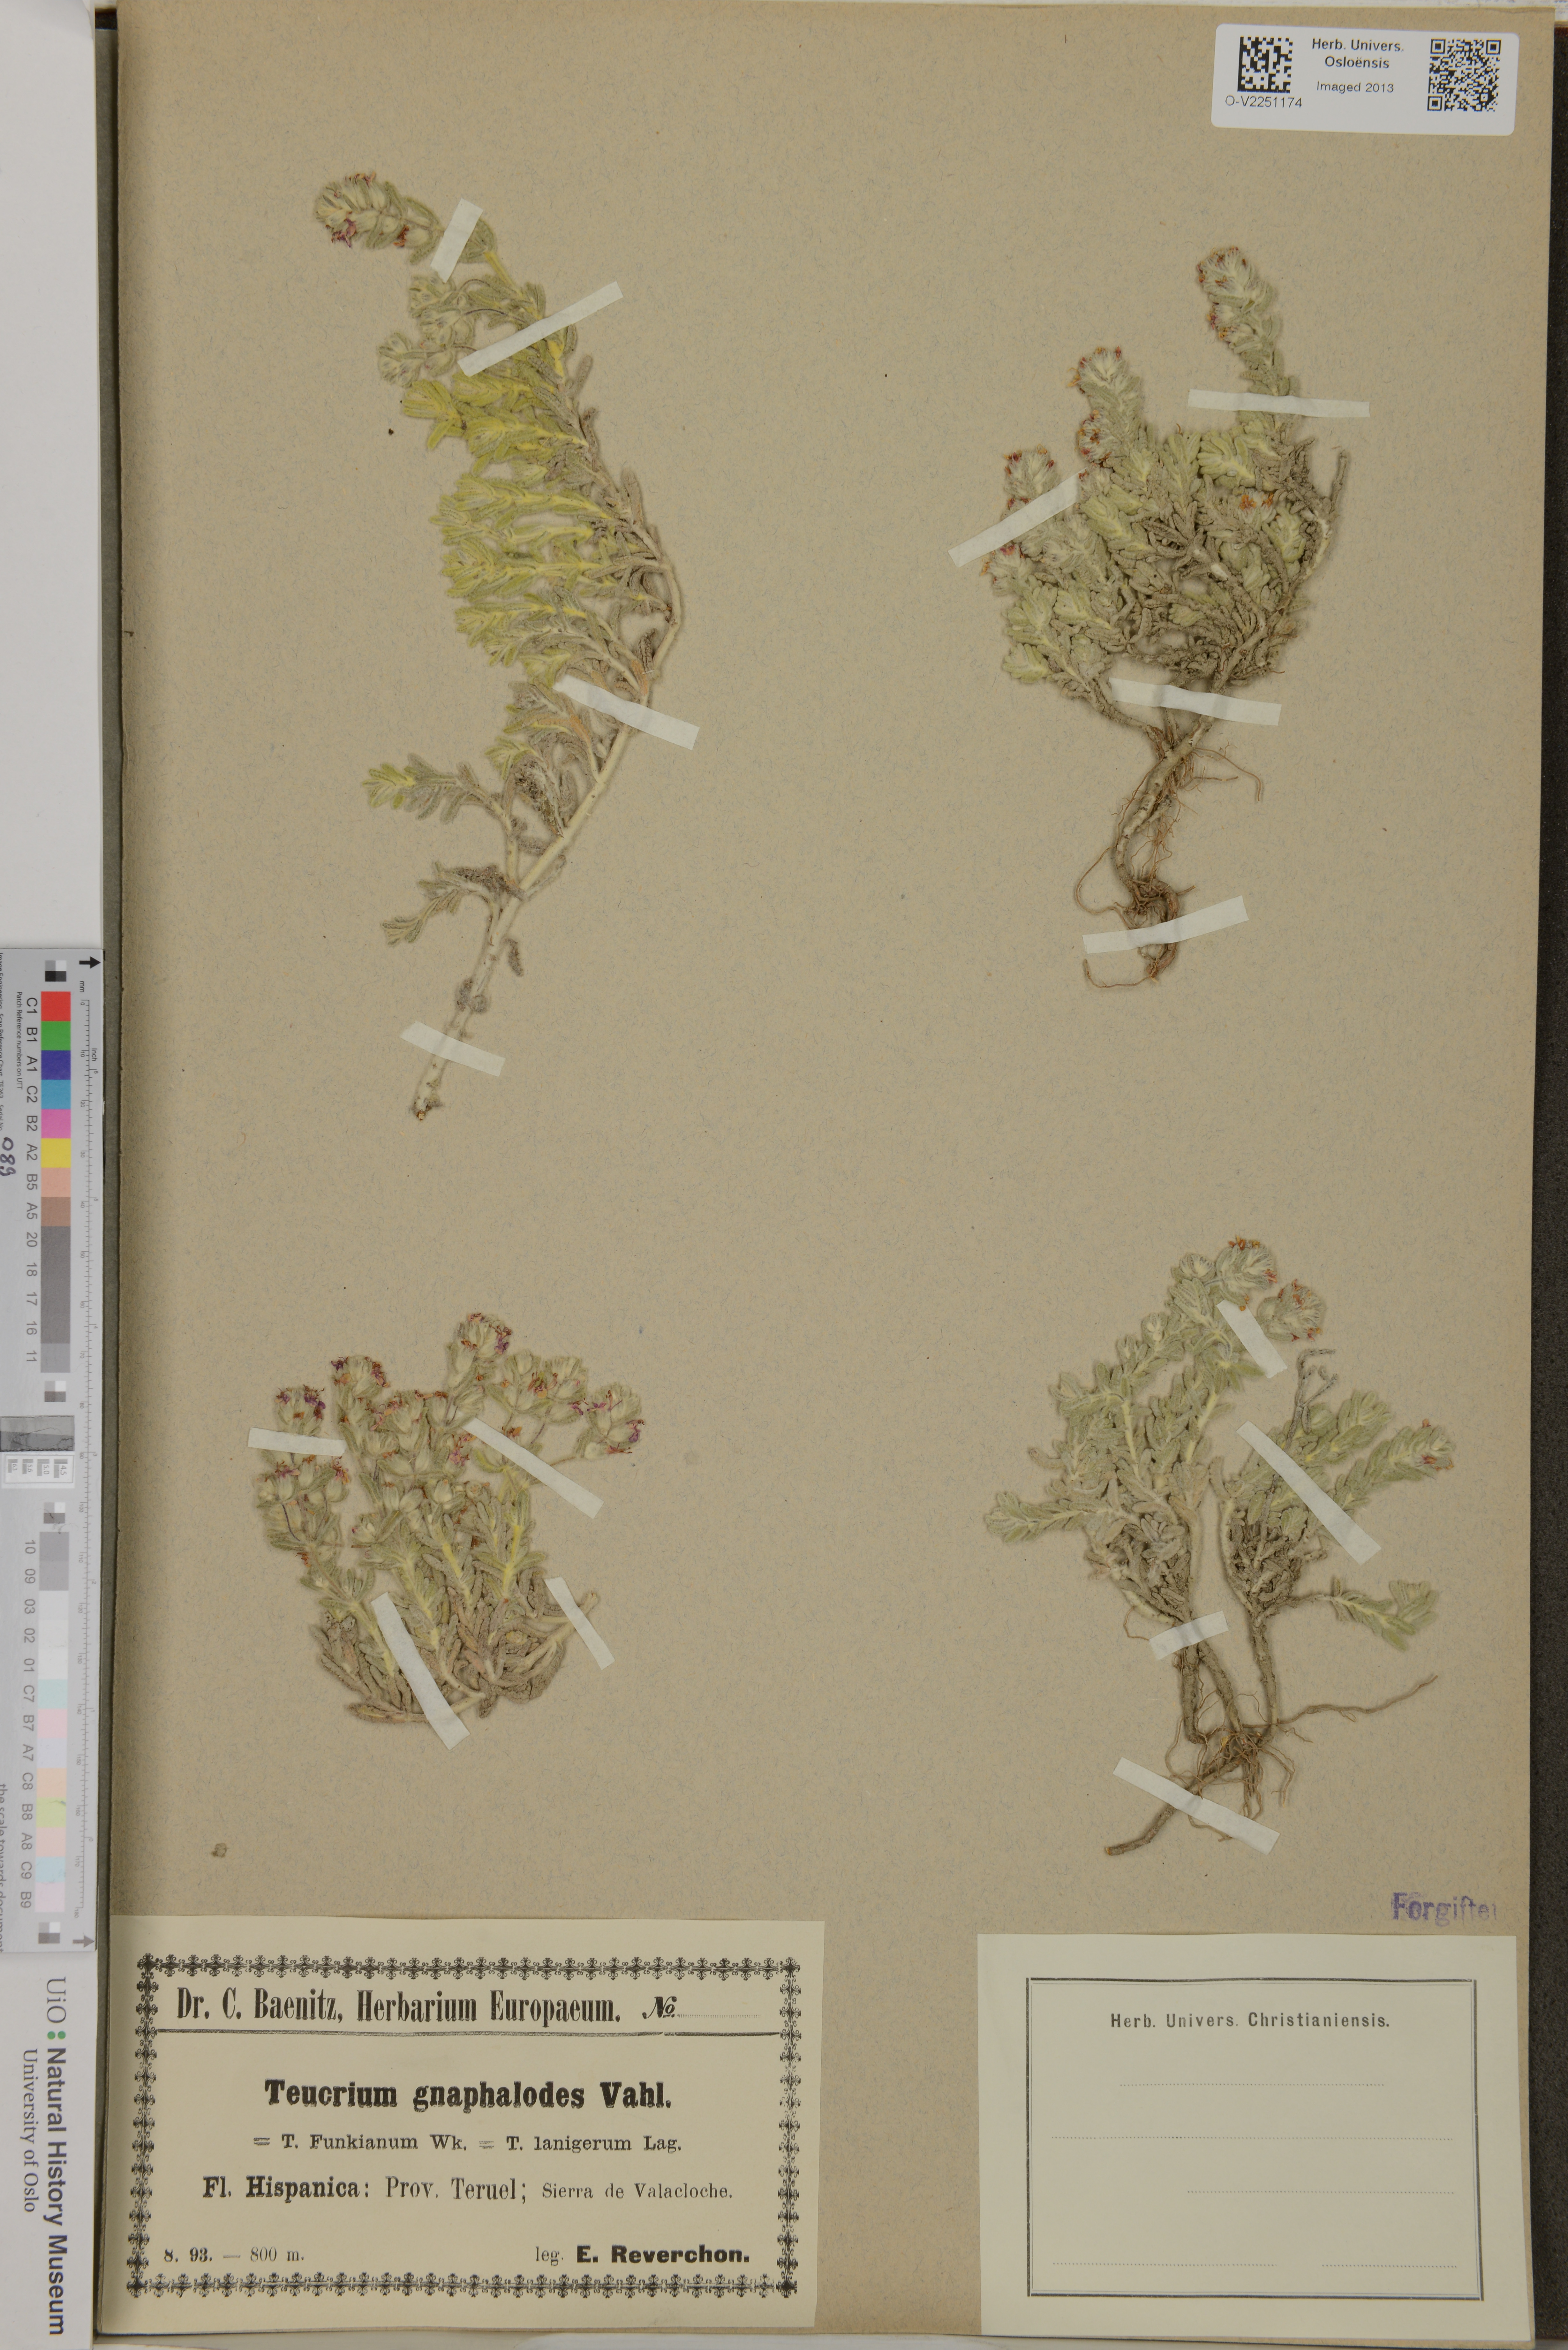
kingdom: Plantae
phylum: Tracheophyta
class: Magnoliopsida
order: Lamiales
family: Lamiaceae
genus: Teucrium
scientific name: Teucrium gnaphalodes
